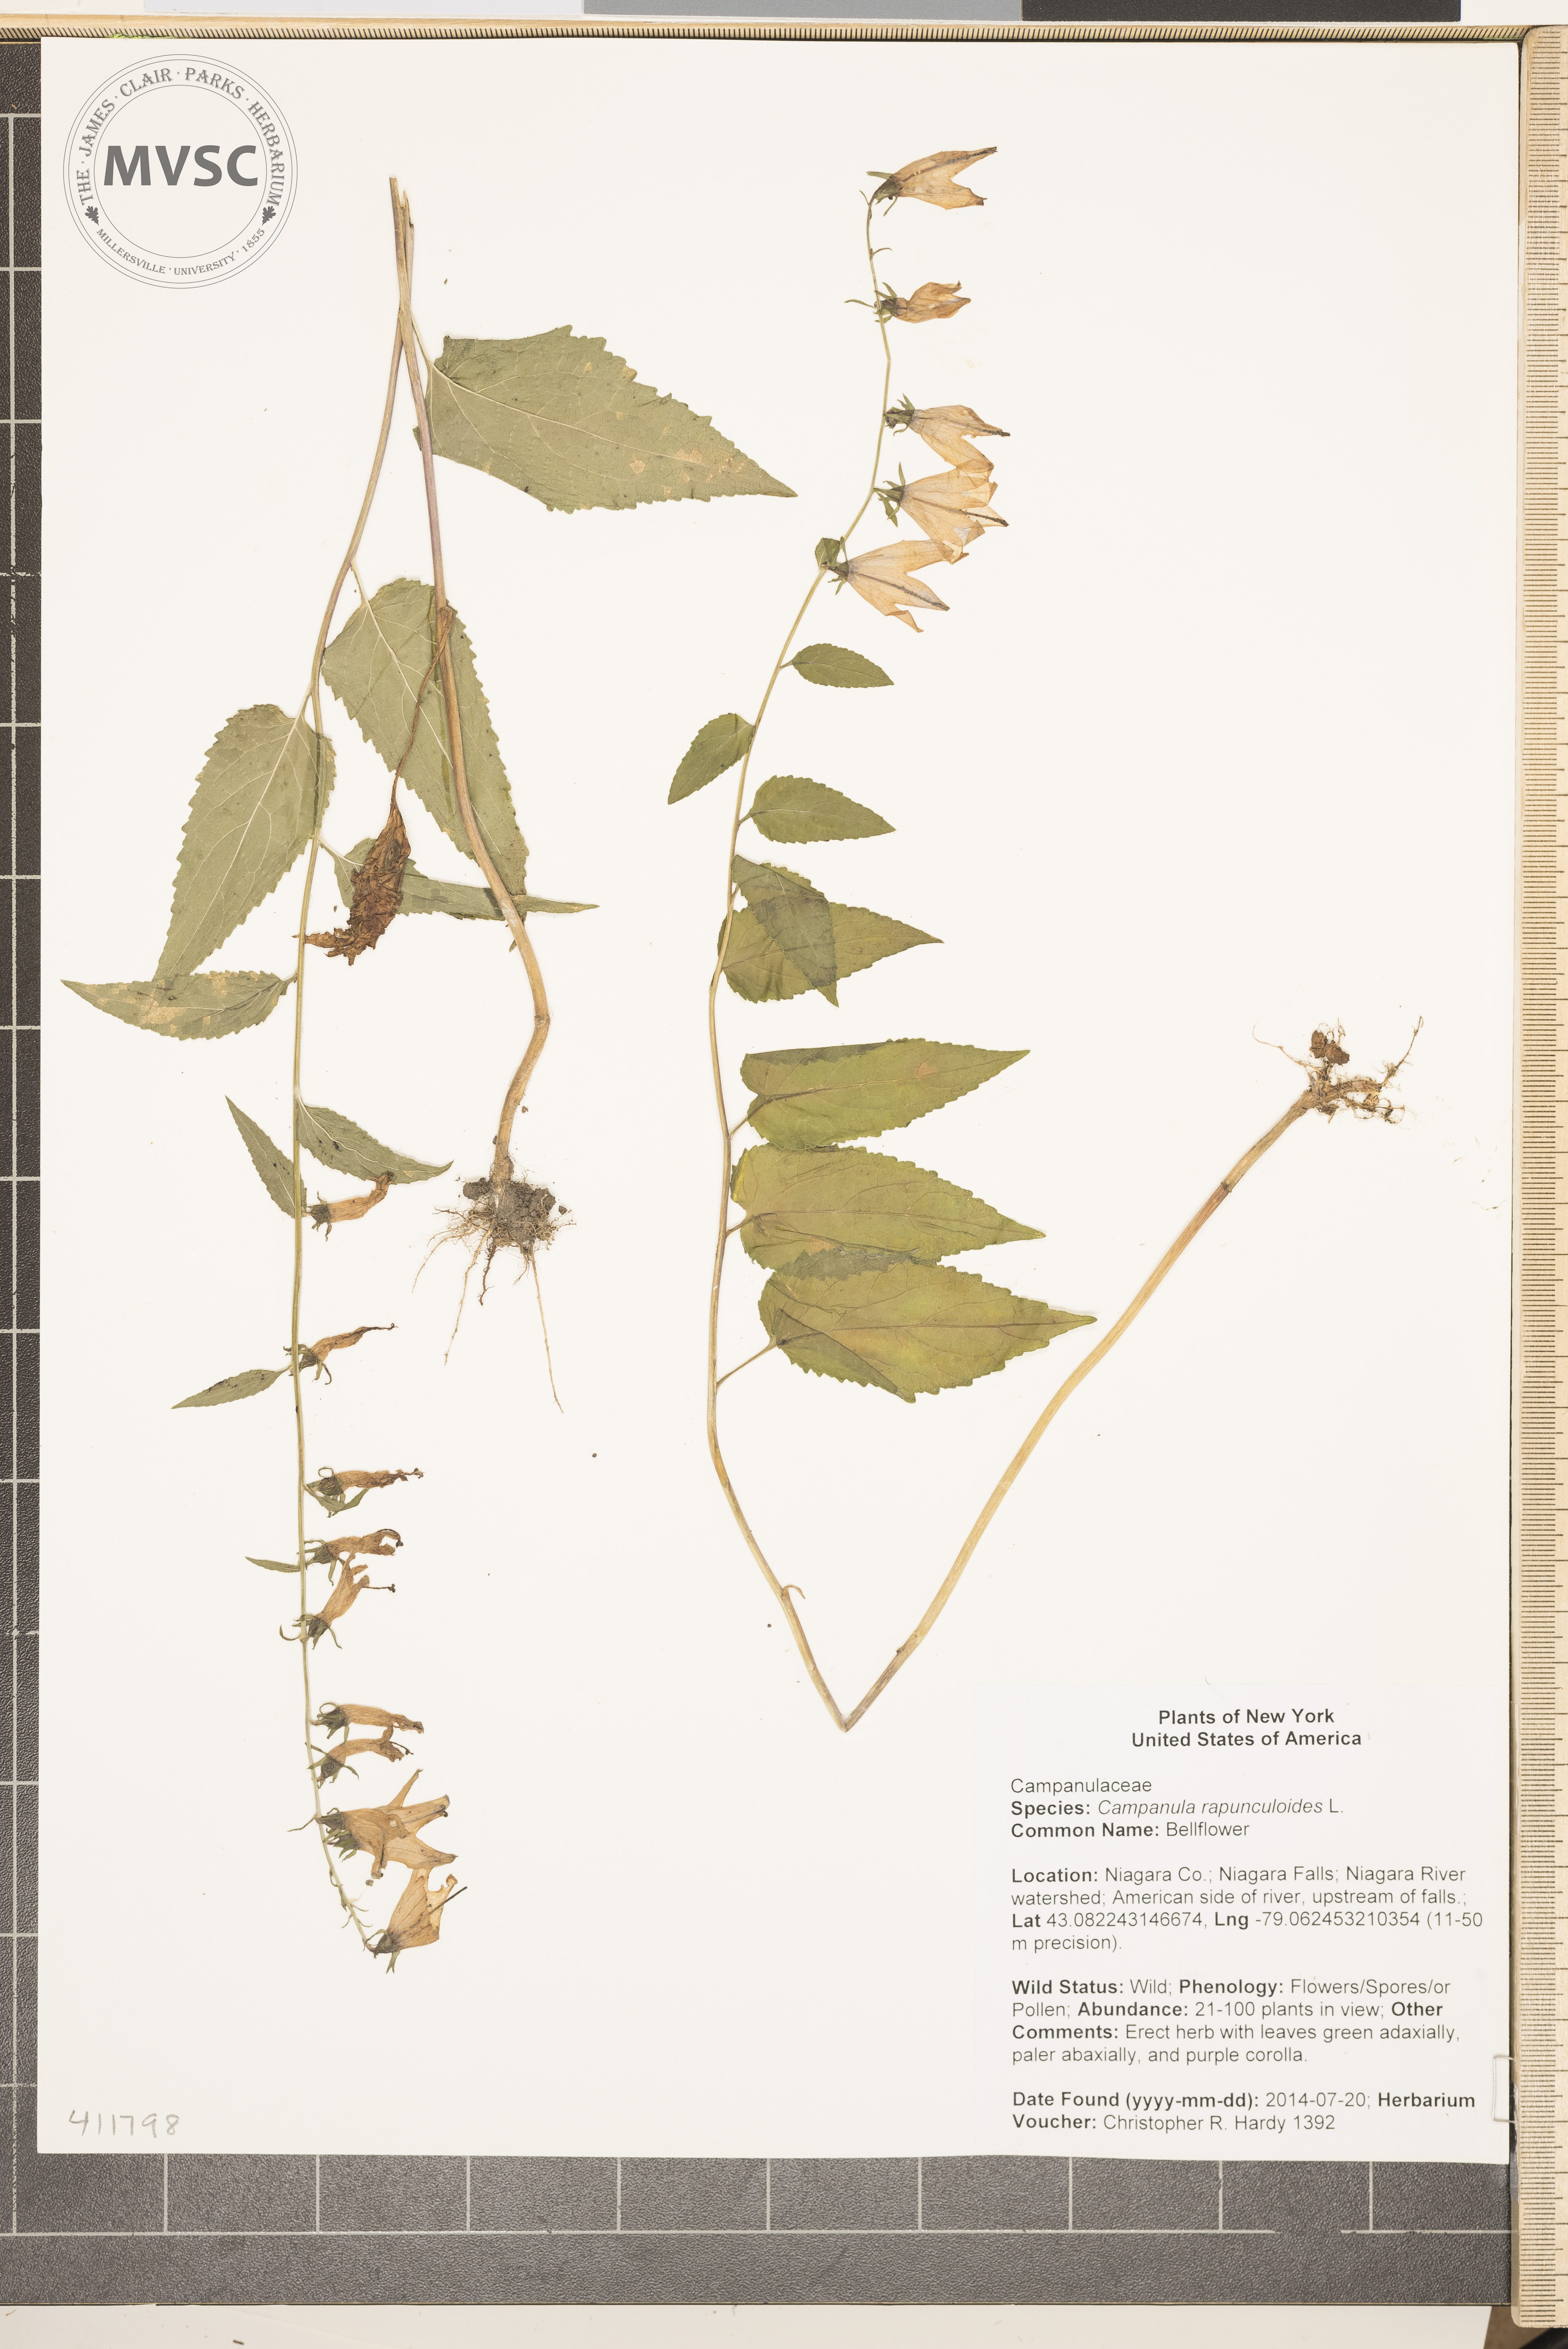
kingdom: Plantae
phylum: Tracheophyta
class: Magnoliopsida
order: Asterales
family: Campanulaceae
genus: Campanula
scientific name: Campanula rapunculoides
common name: Bellflower
